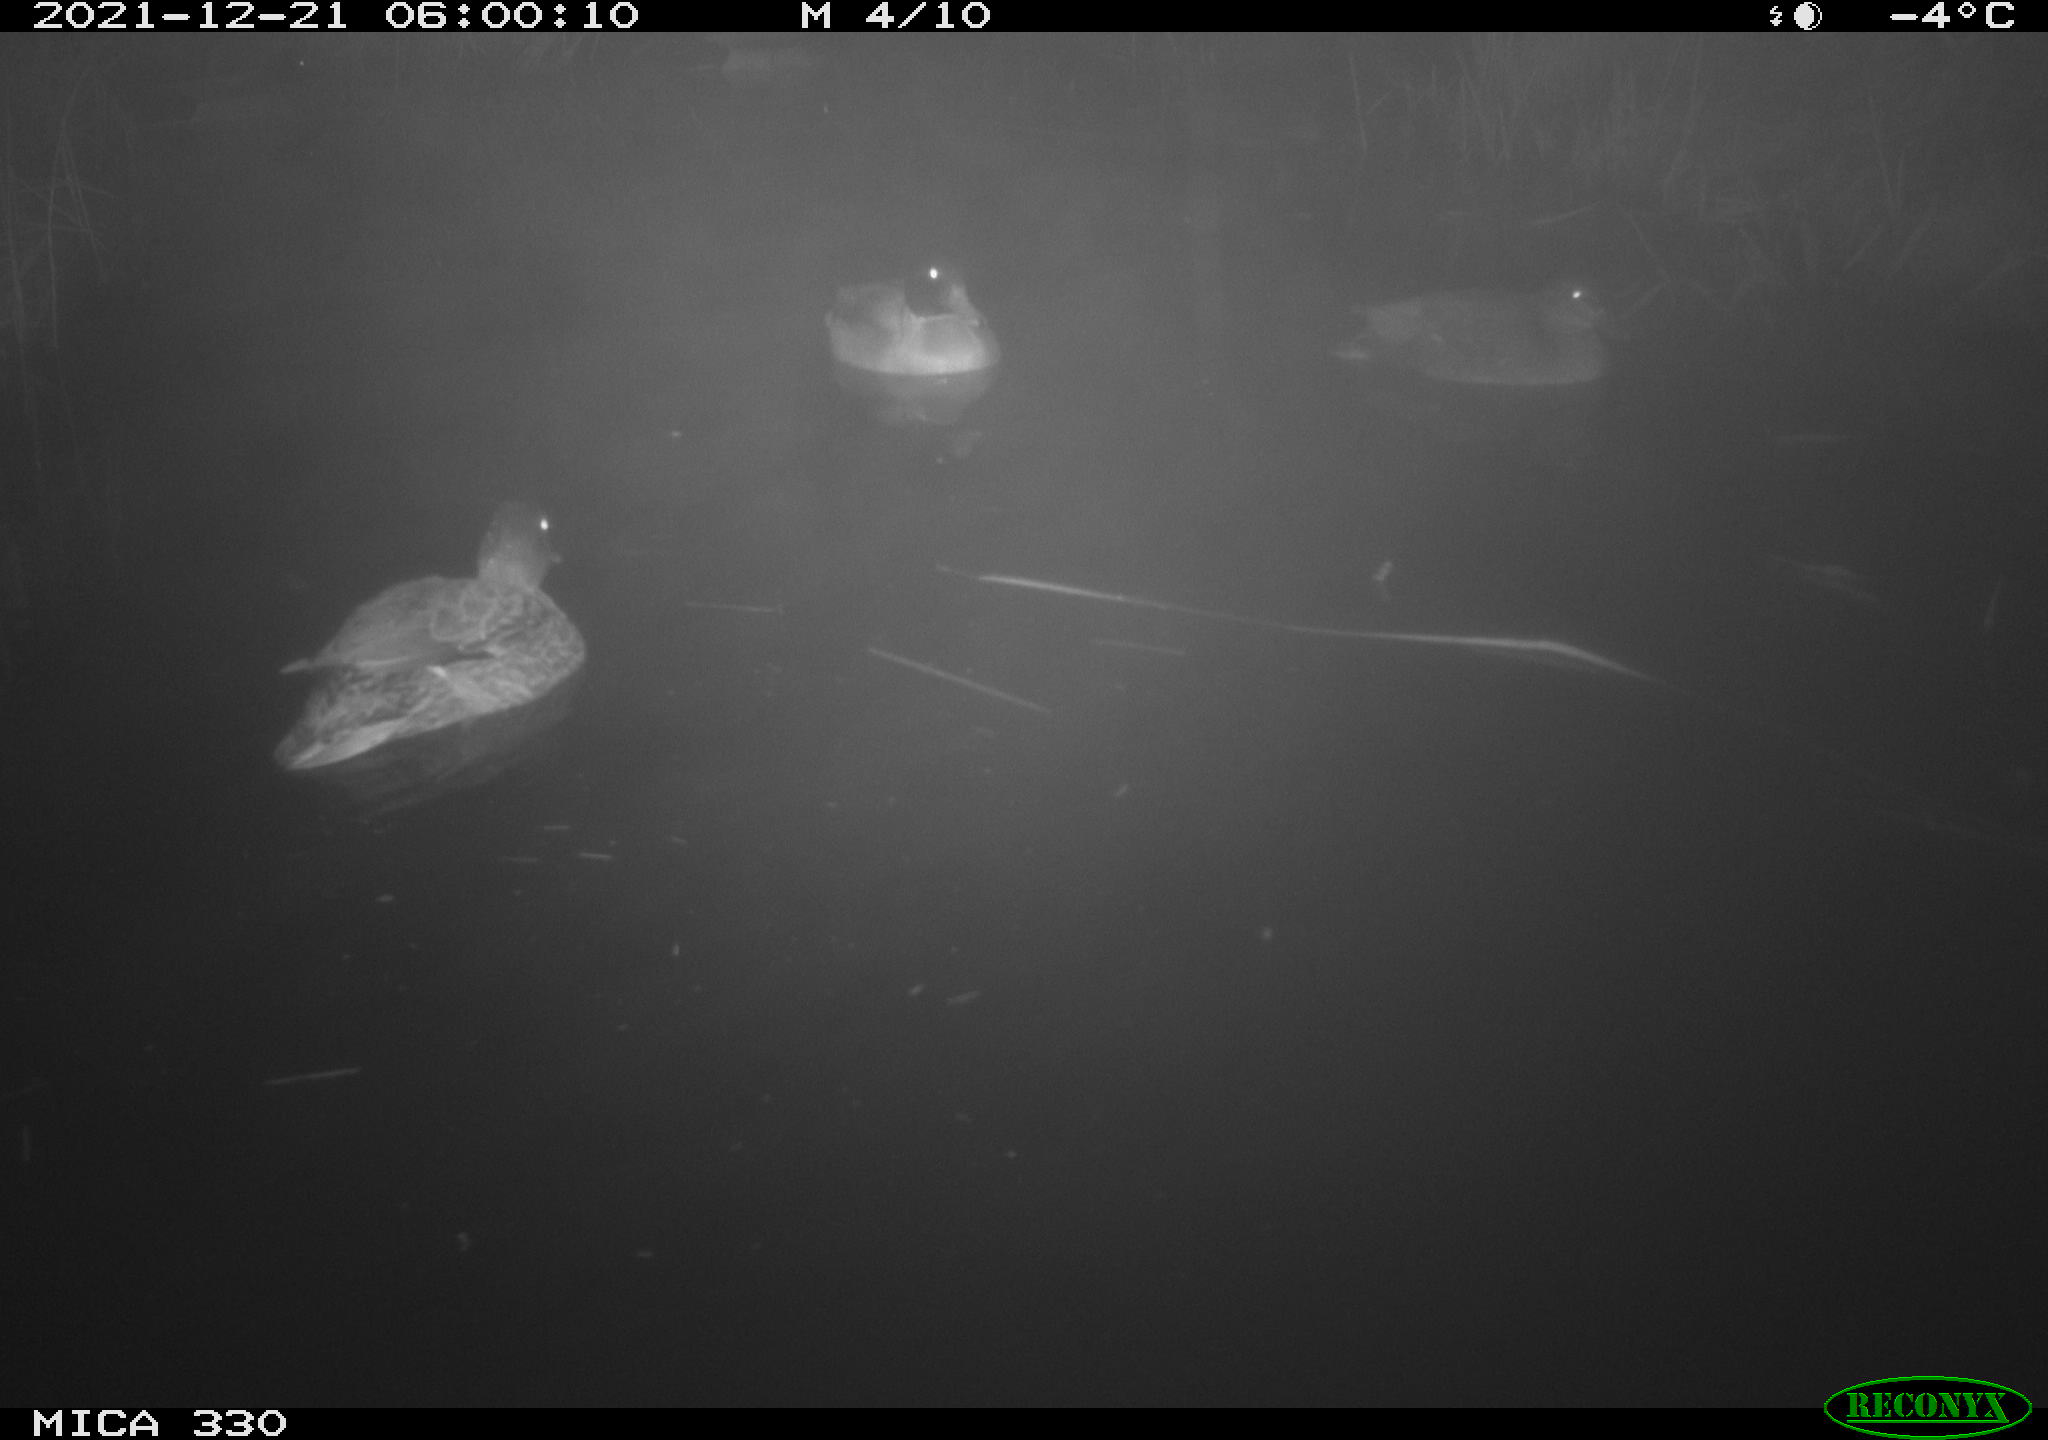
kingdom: Animalia
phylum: Chordata
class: Aves
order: Anseriformes
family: Anatidae
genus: Anas
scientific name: Anas platyrhynchos
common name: Mallard
